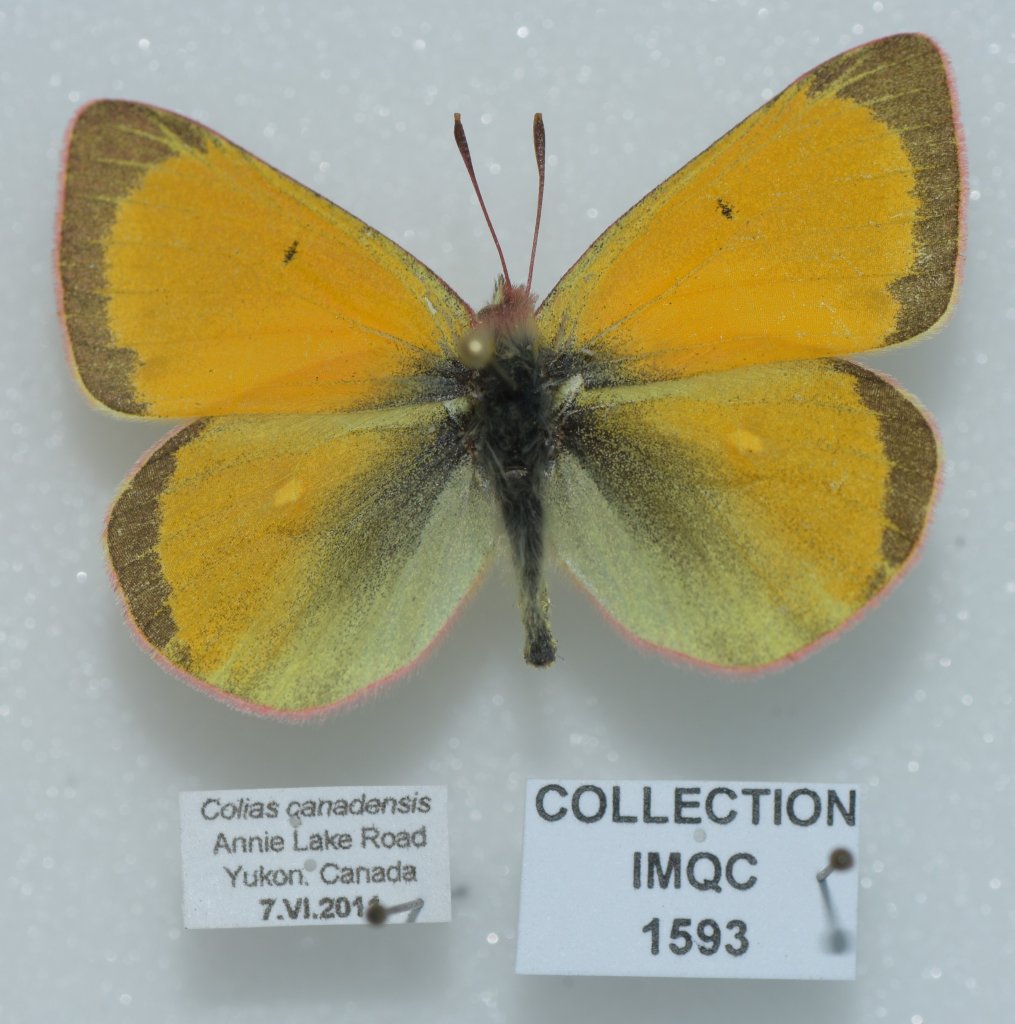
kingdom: Animalia
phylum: Arthropoda
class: Insecta
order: Lepidoptera
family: Pieridae
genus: Colias
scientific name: Colias canadensis
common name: Canadian Sulphur
